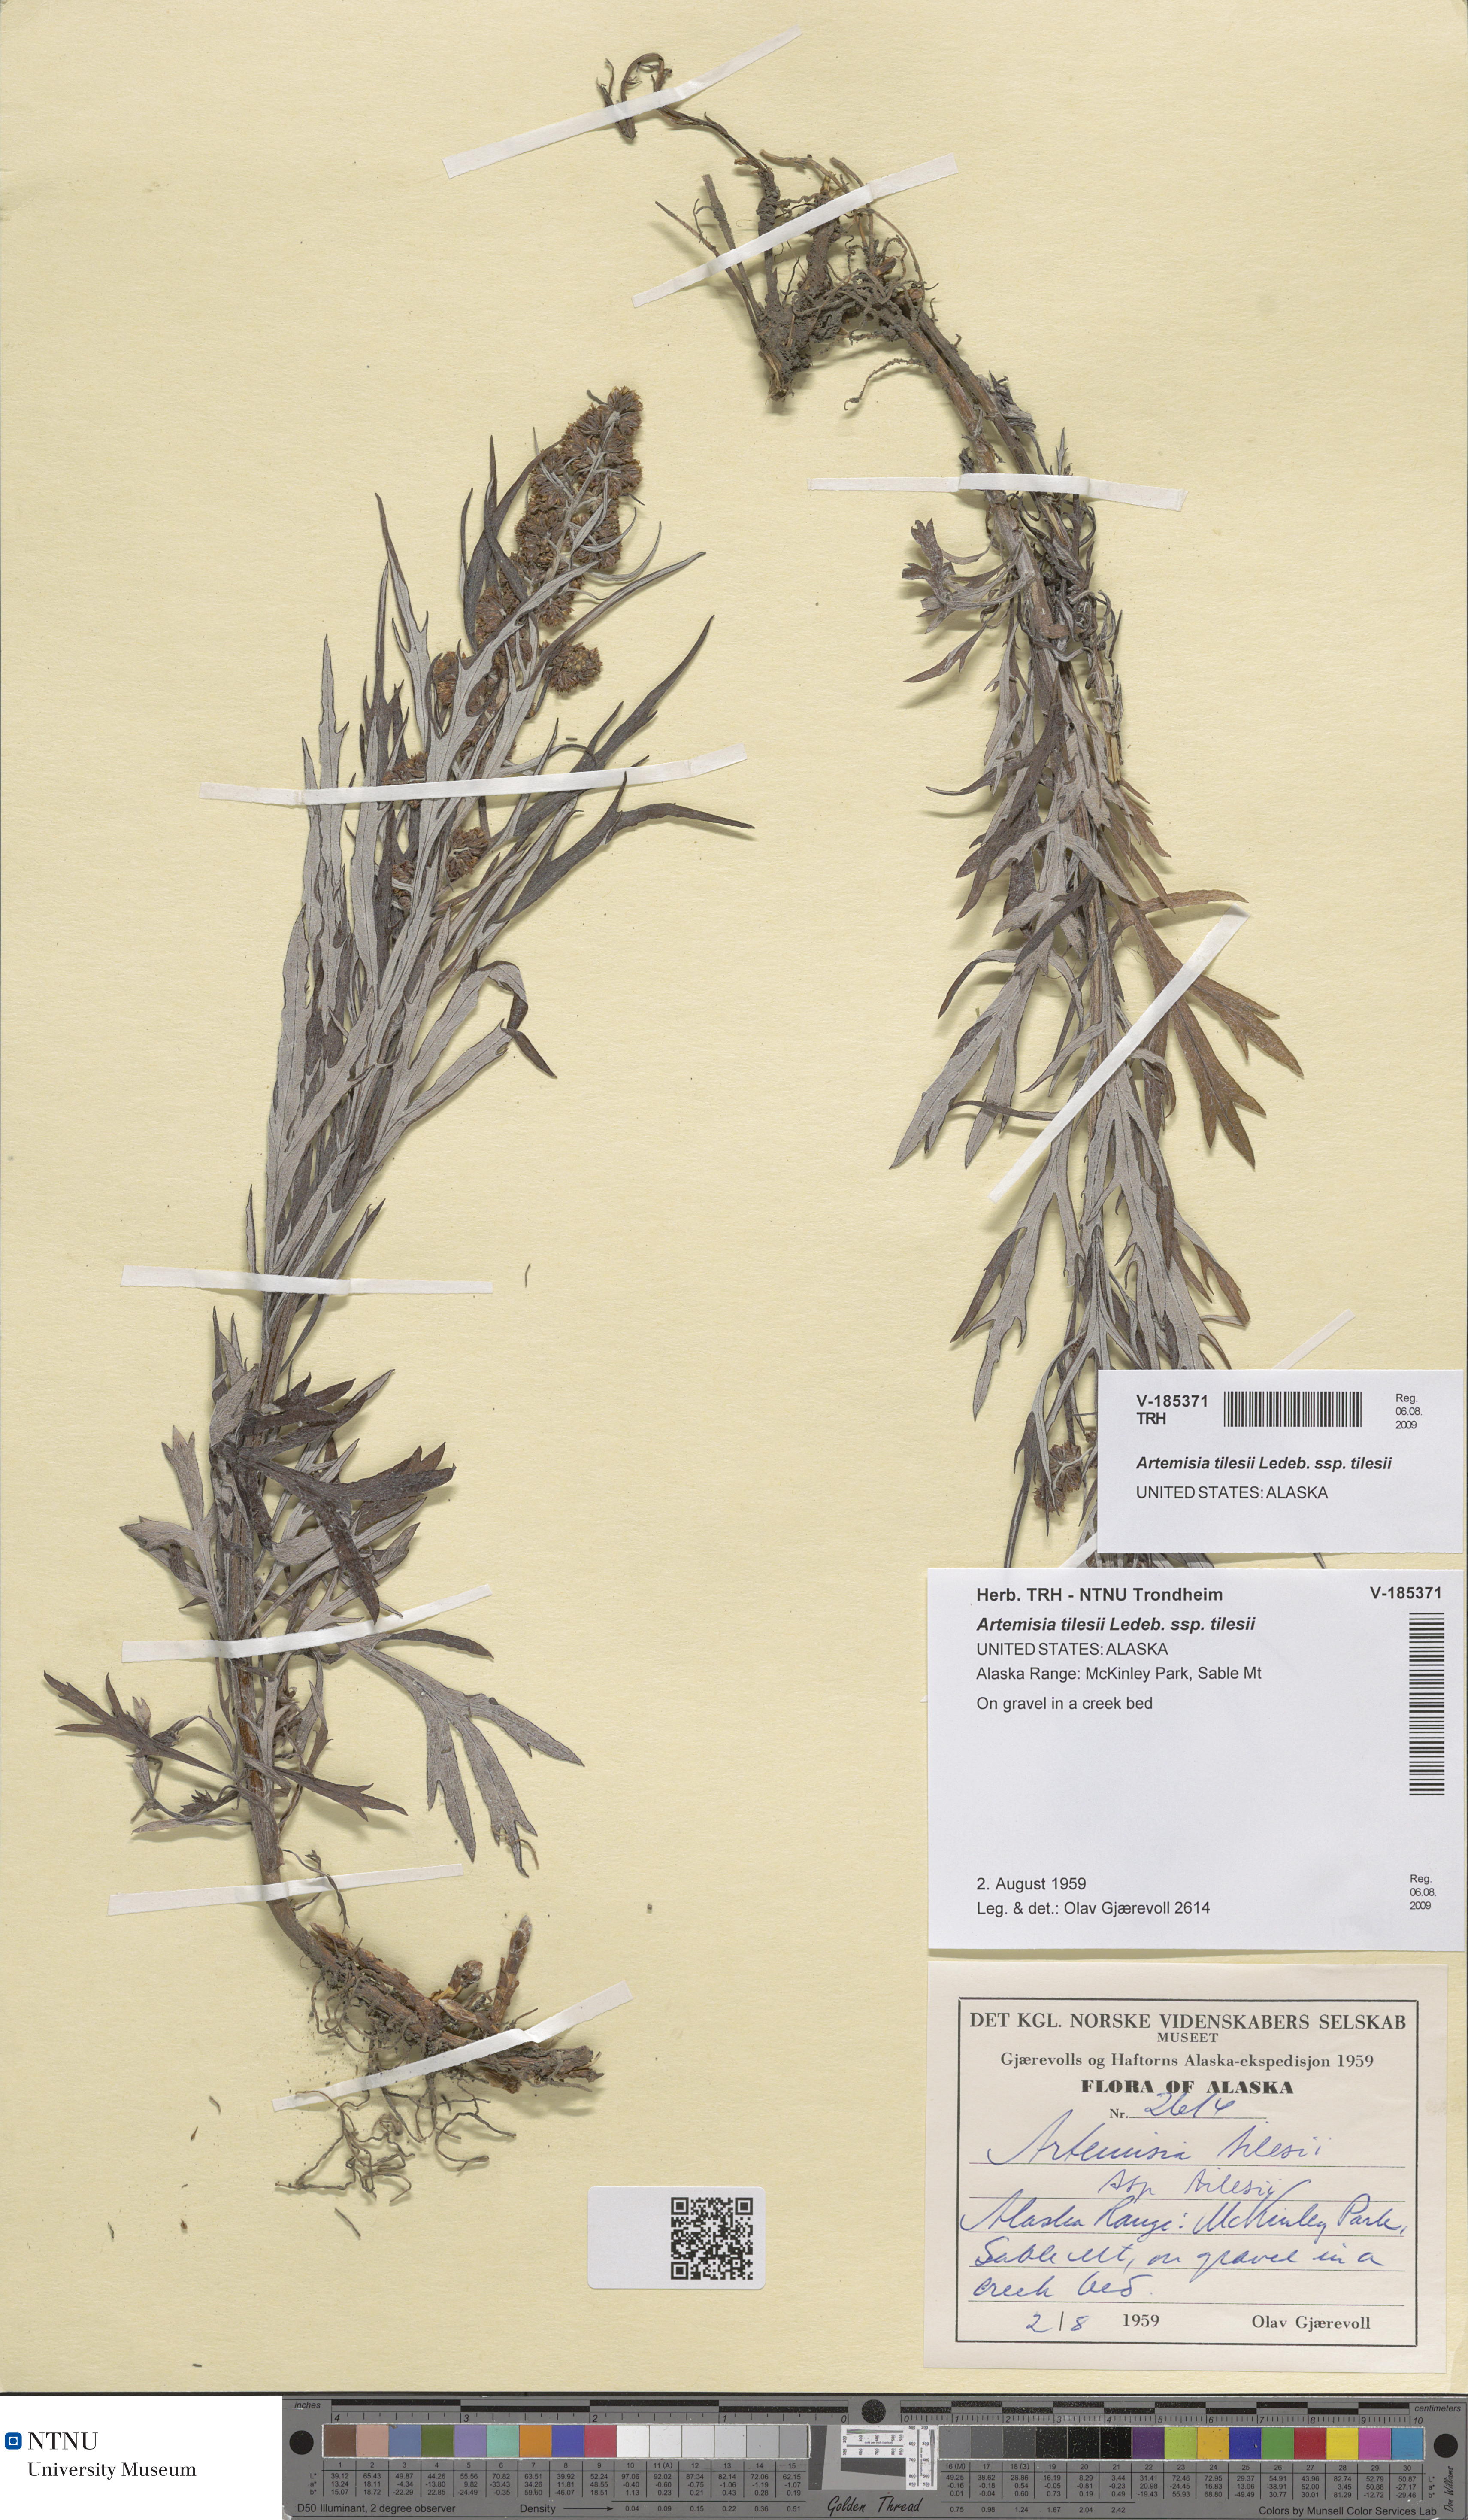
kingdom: Plantae
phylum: Tracheophyta
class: Magnoliopsida
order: Asterales
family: Asteraceae
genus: Artemisia
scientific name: Artemisia tilesii
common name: Aleutian mugwort
